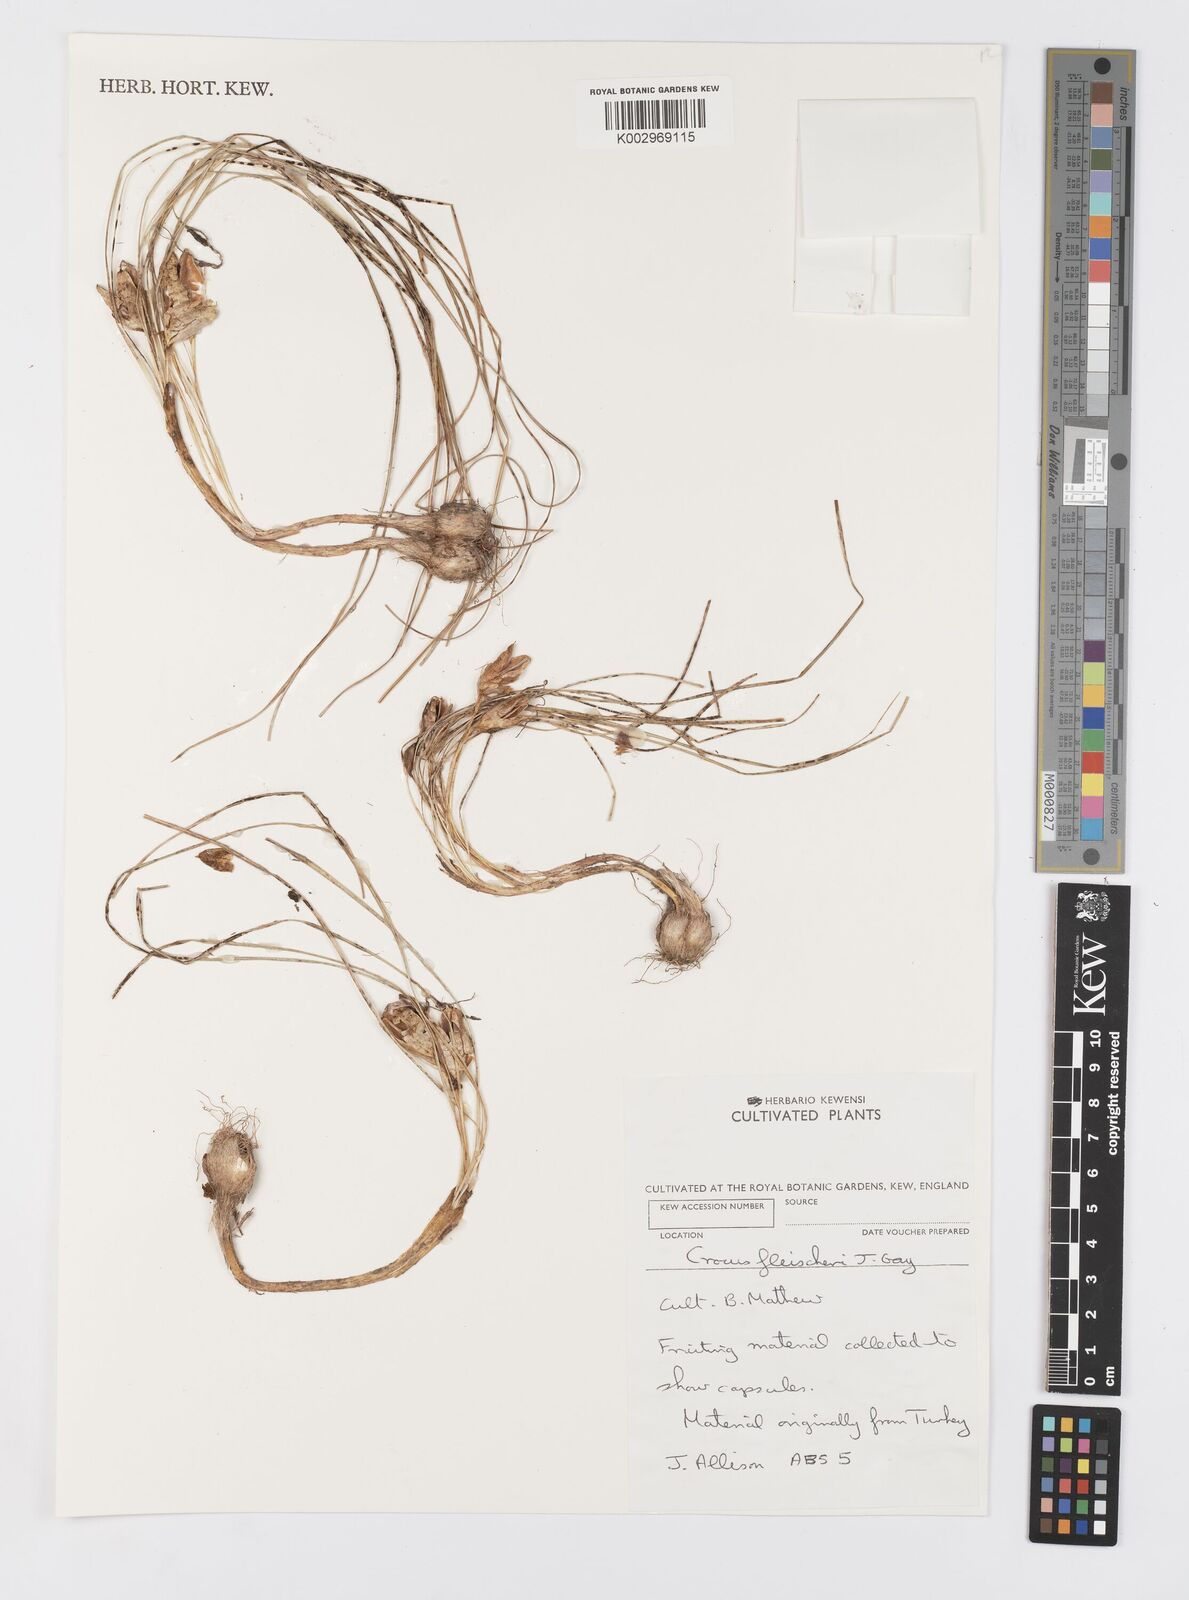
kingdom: Plantae
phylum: Tracheophyta
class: Liliopsida
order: Asparagales
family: Iridaceae
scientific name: Iridaceae
